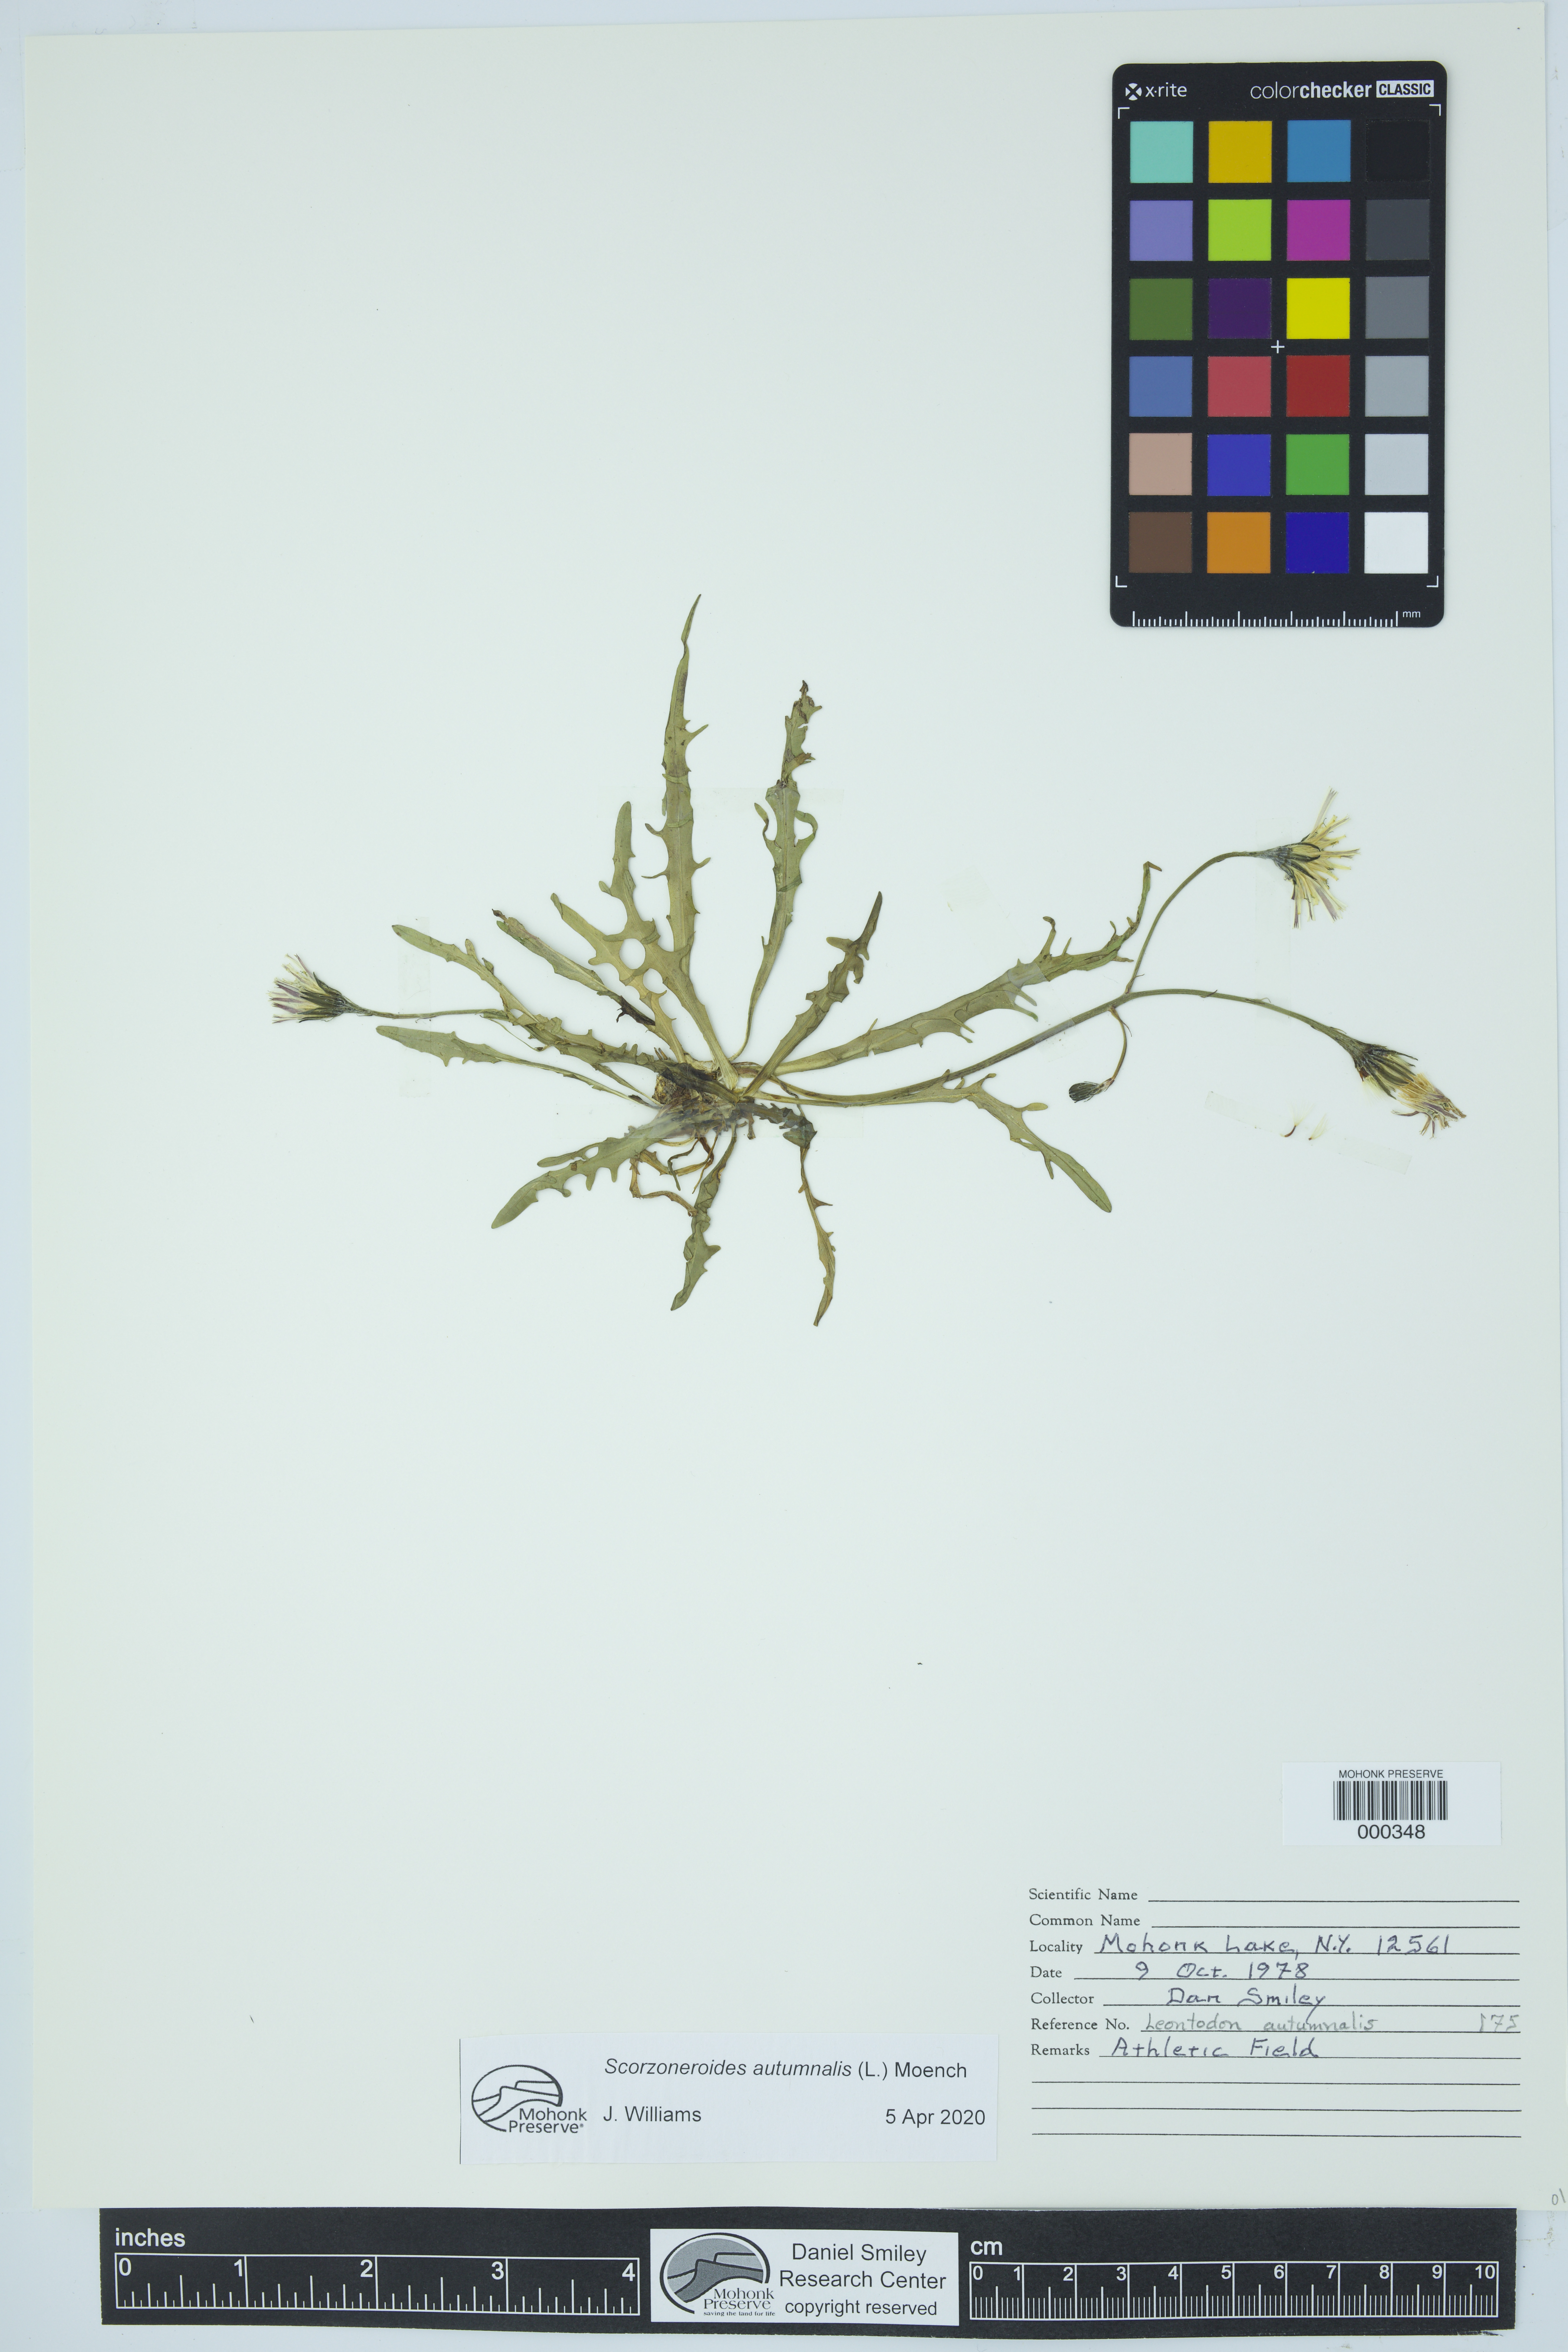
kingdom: Plantae
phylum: Tracheophyta
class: Magnoliopsida
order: Asterales
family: Asteraceae
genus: Scorzoneroides
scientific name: Scorzoneroides autumnalis
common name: Autumn hawkbit
